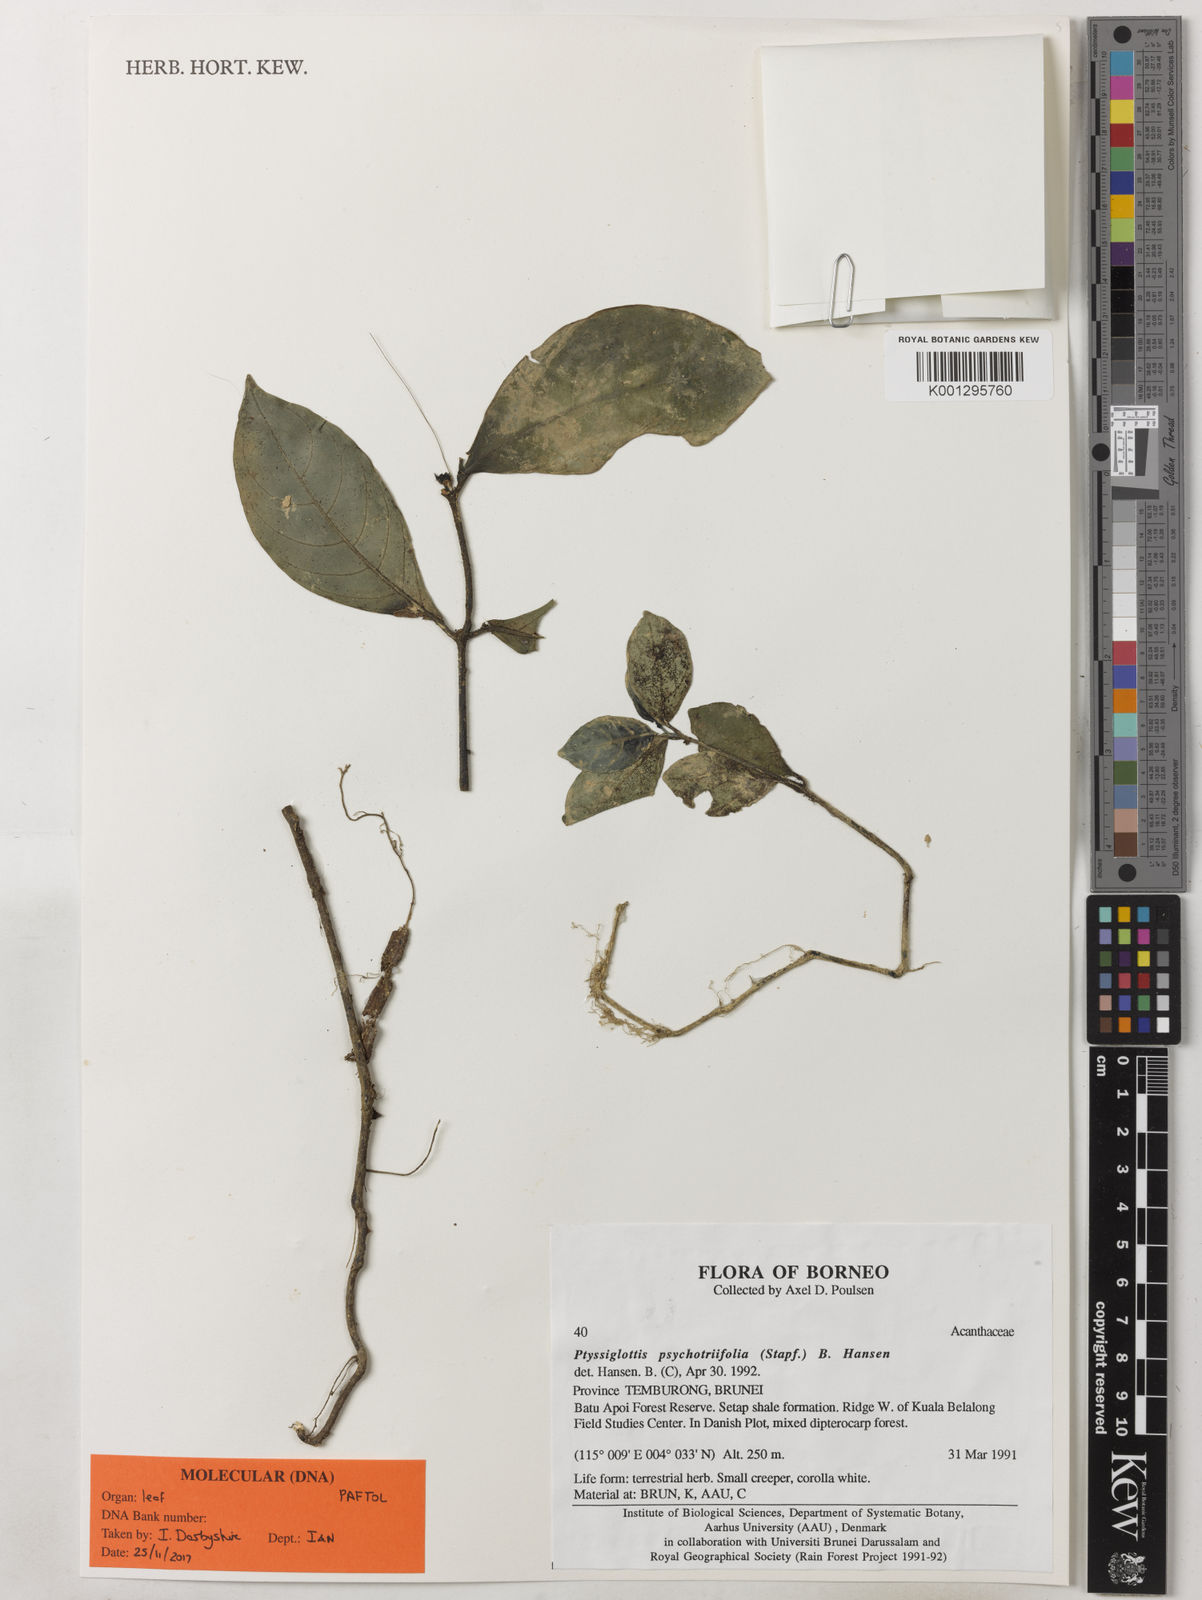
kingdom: Plantae
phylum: Tracheophyta
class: Magnoliopsida
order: Lamiales
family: Acanthaceae
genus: Ptyssiglottis
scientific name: Ptyssiglottis psychotriifolia
